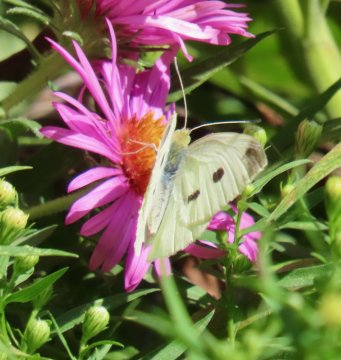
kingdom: Animalia
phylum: Arthropoda
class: Insecta
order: Lepidoptera
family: Pieridae
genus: Pieris
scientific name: Pieris rapae
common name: Cabbage White
